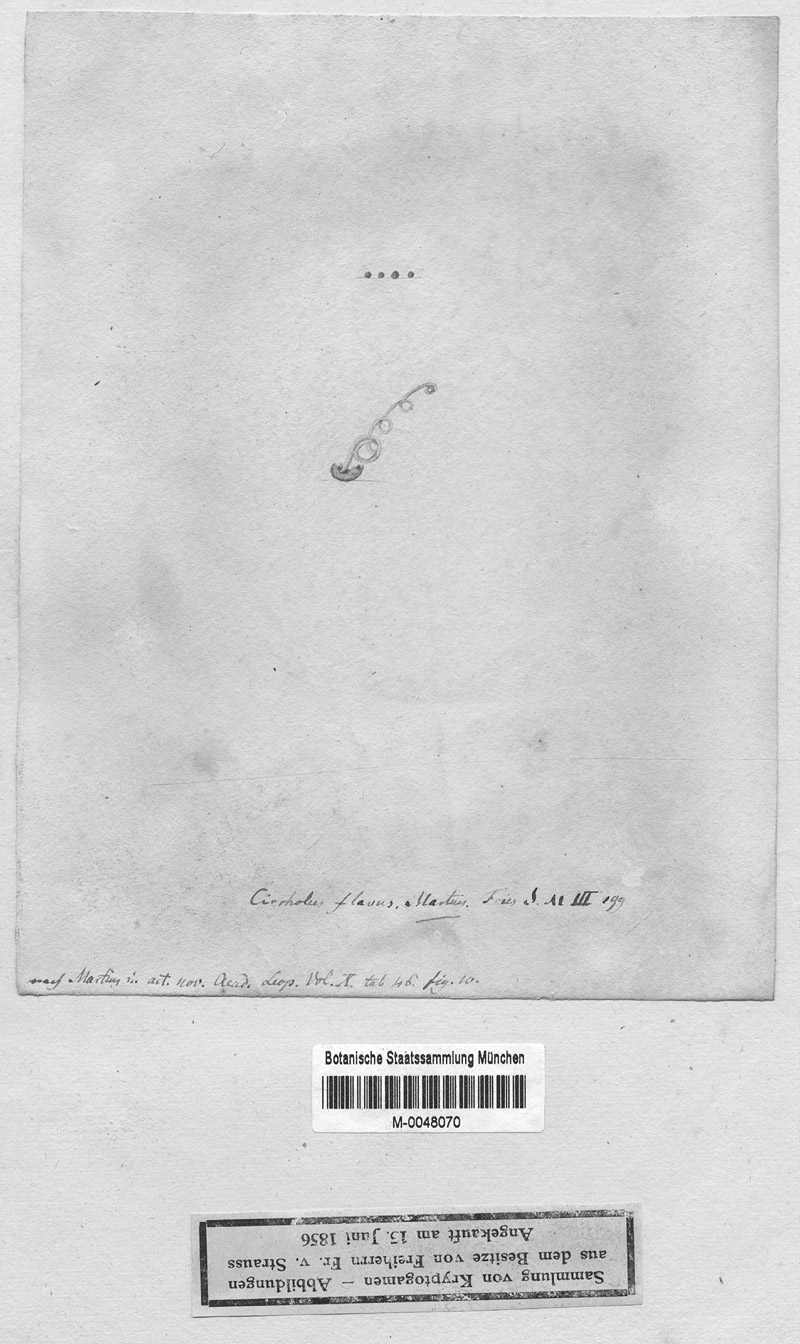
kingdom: Protozoa
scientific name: Protozoa
